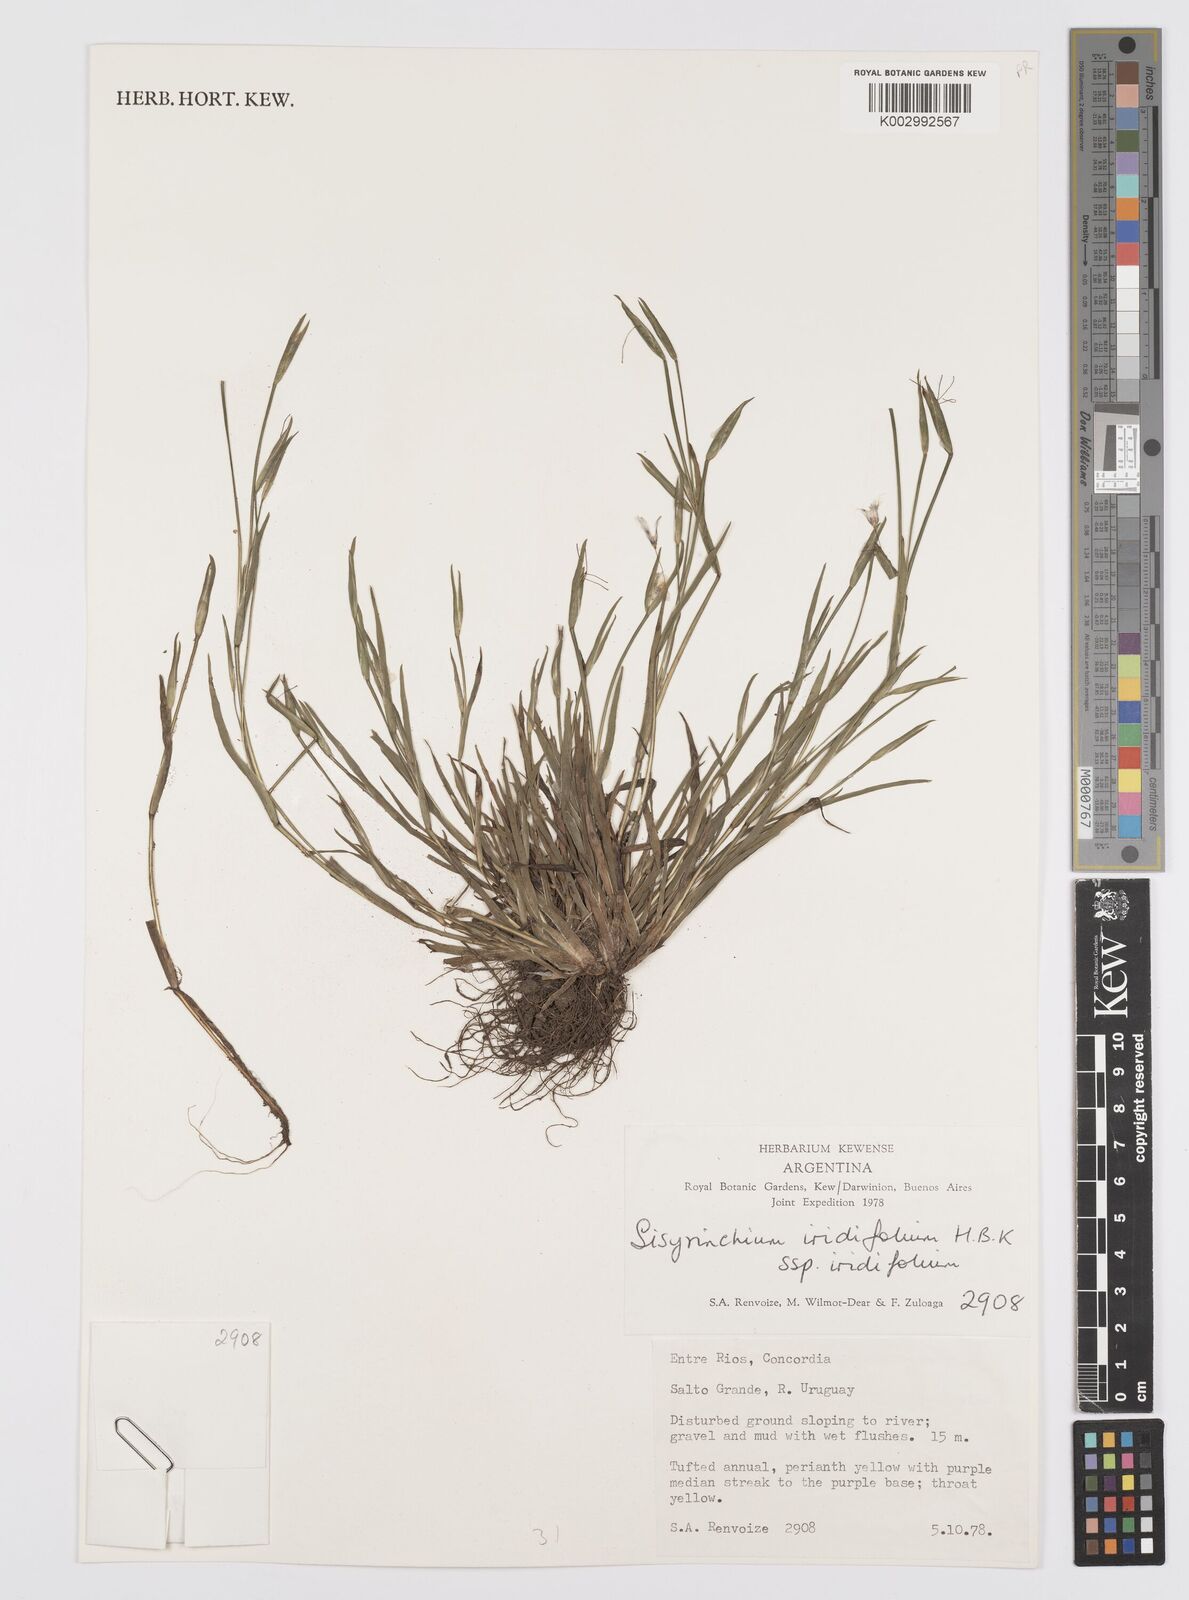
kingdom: Plantae
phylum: Tracheophyta
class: Liliopsida
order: Asparagales
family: Iridaceae
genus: Sisyrinchium
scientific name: Sisyrinchium micranthum
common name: Bermuda pigroot
